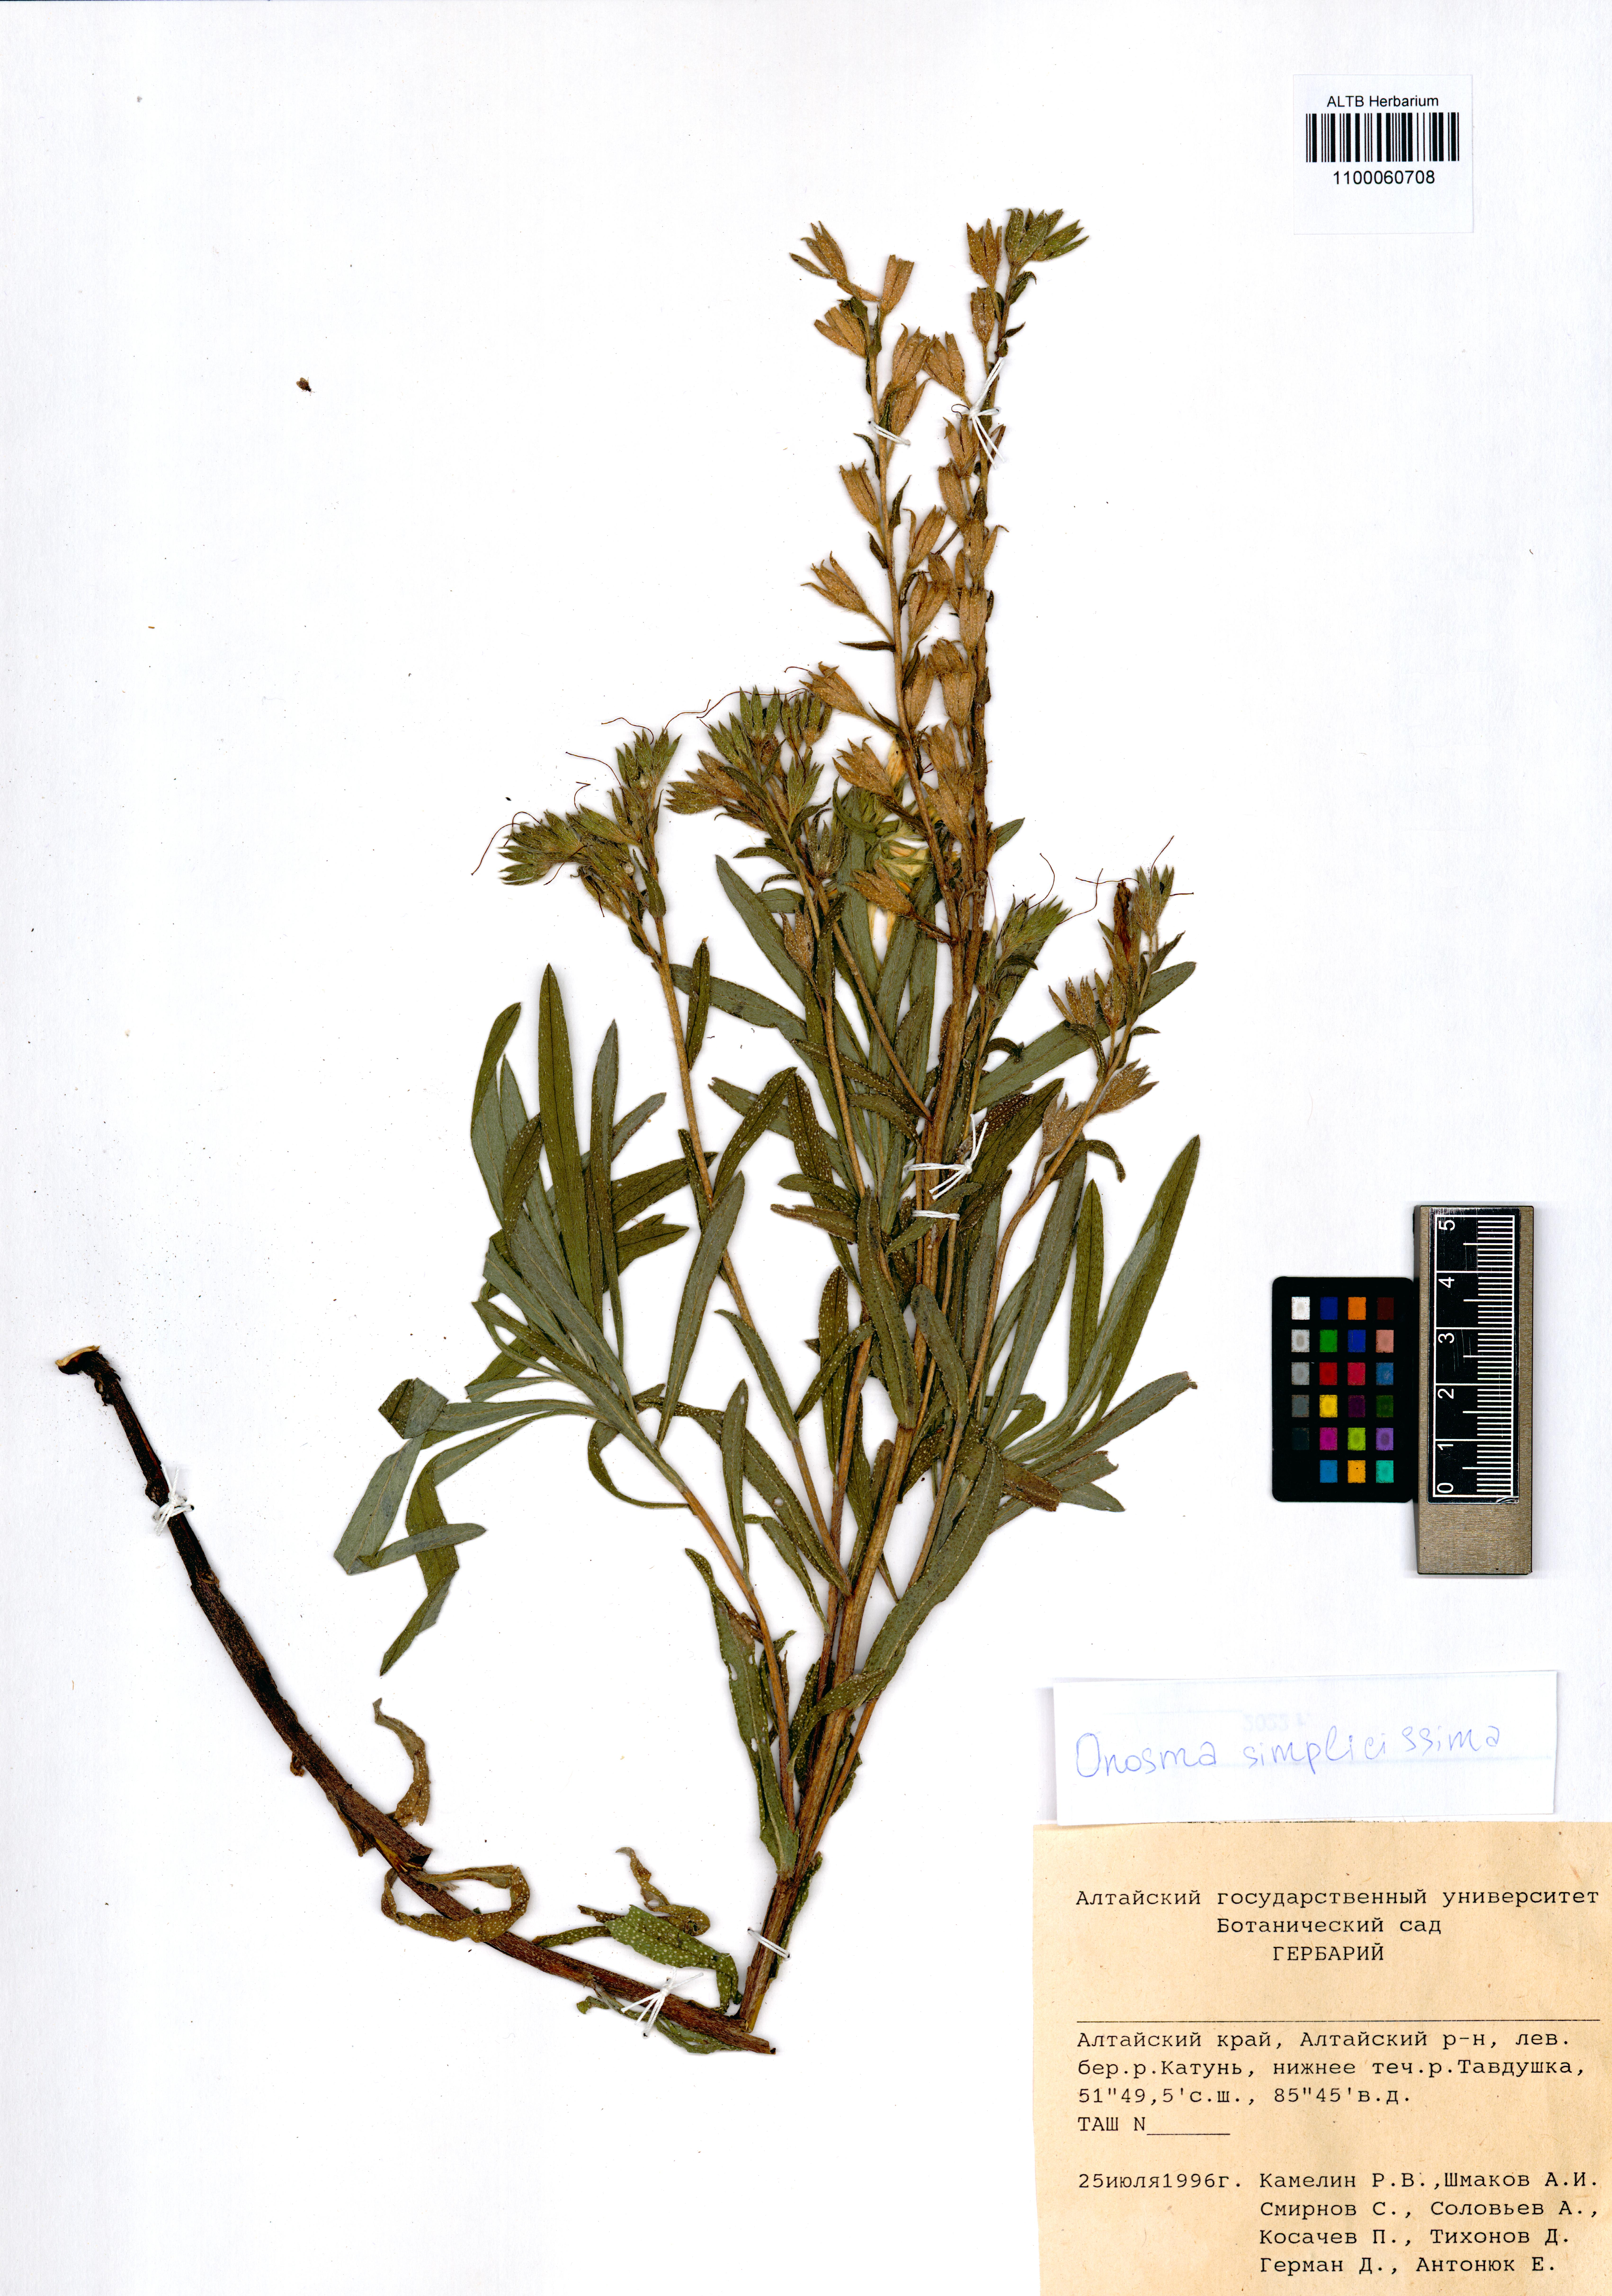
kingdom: Plantae
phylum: Tracheophyta
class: Magnoliopsida
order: Boraginales
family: Boraginaceae
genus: Onosma
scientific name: Onosma simplicissima
